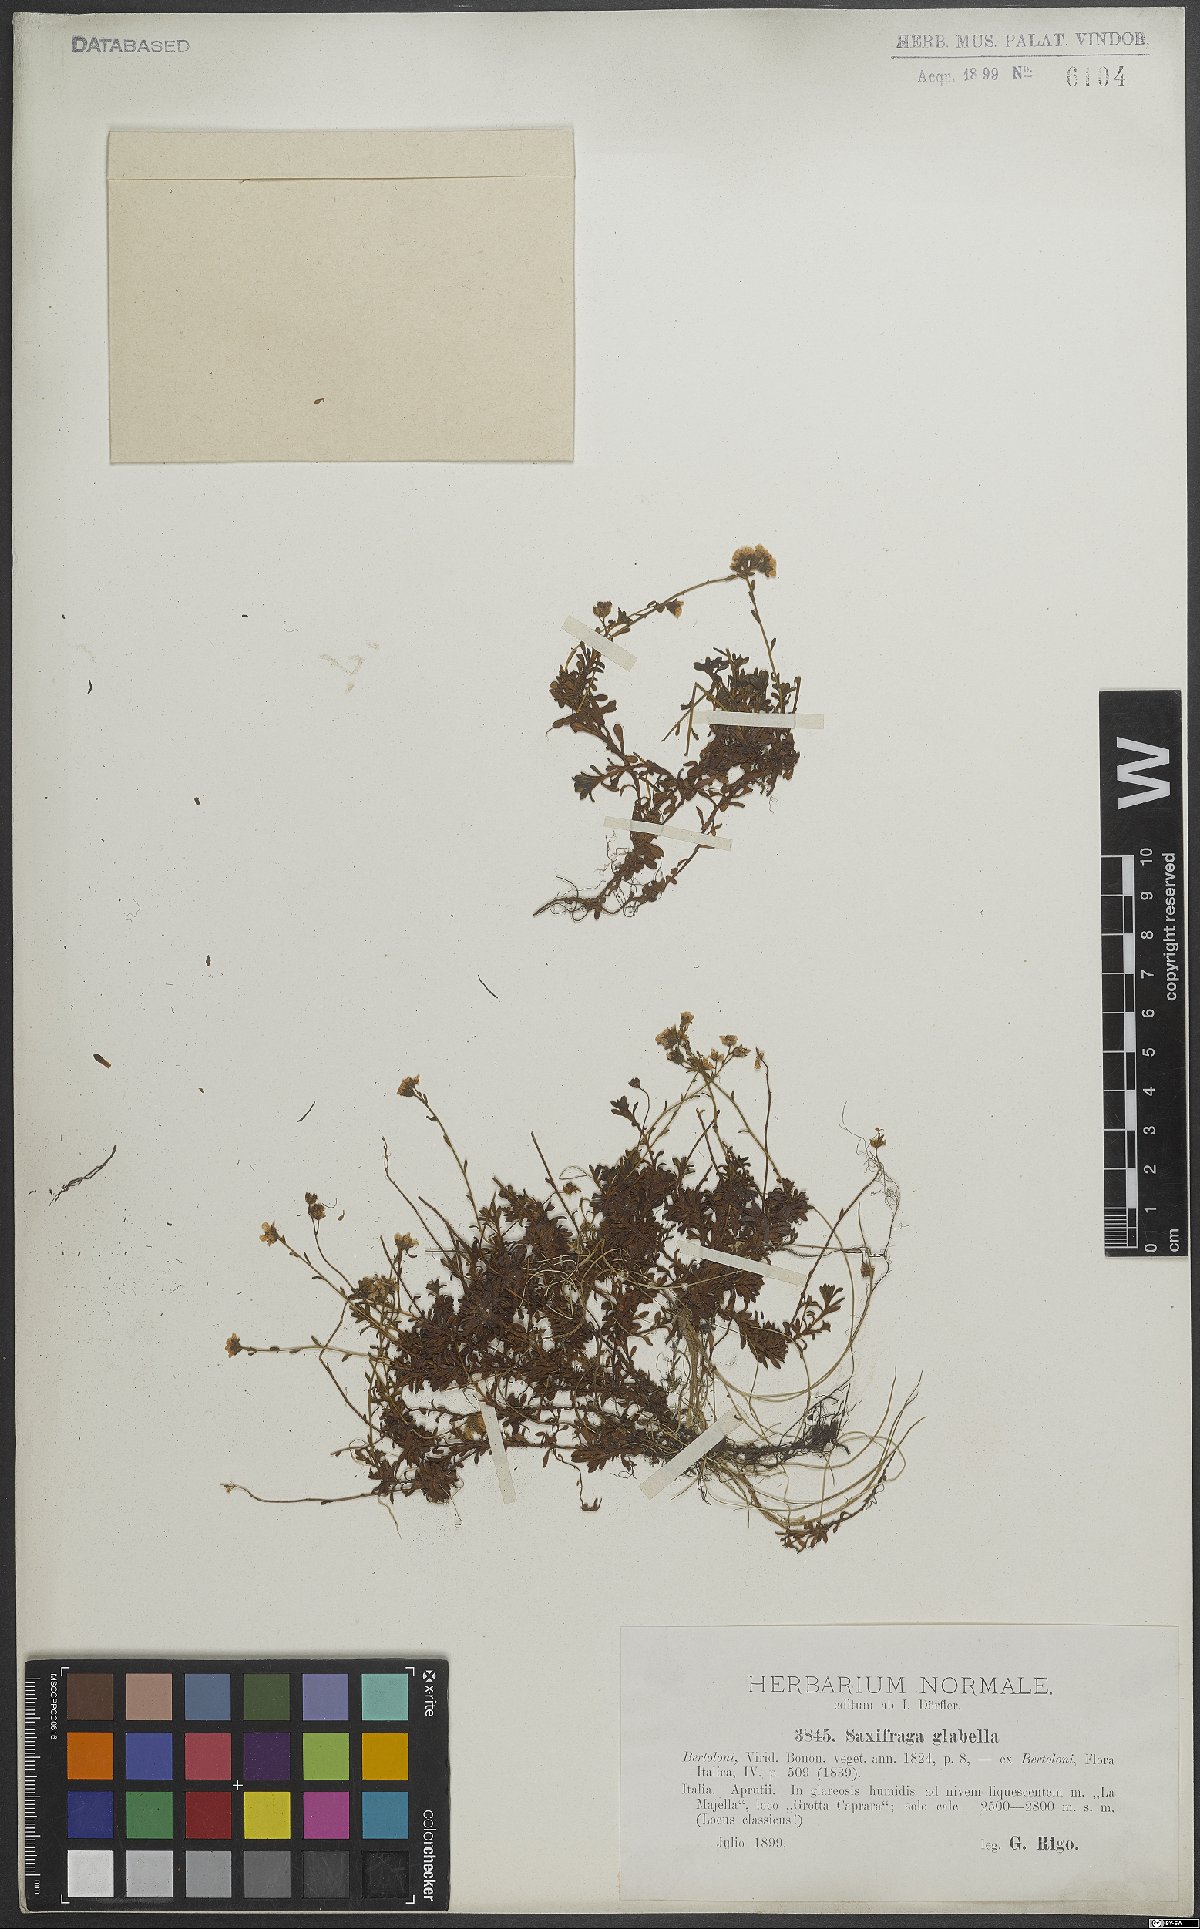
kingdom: Plantae
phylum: Tracheophyta
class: Magnoliopsida
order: Saxifragales
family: Saxifragaceae
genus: Saxifraga
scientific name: Saxifraga glabella
